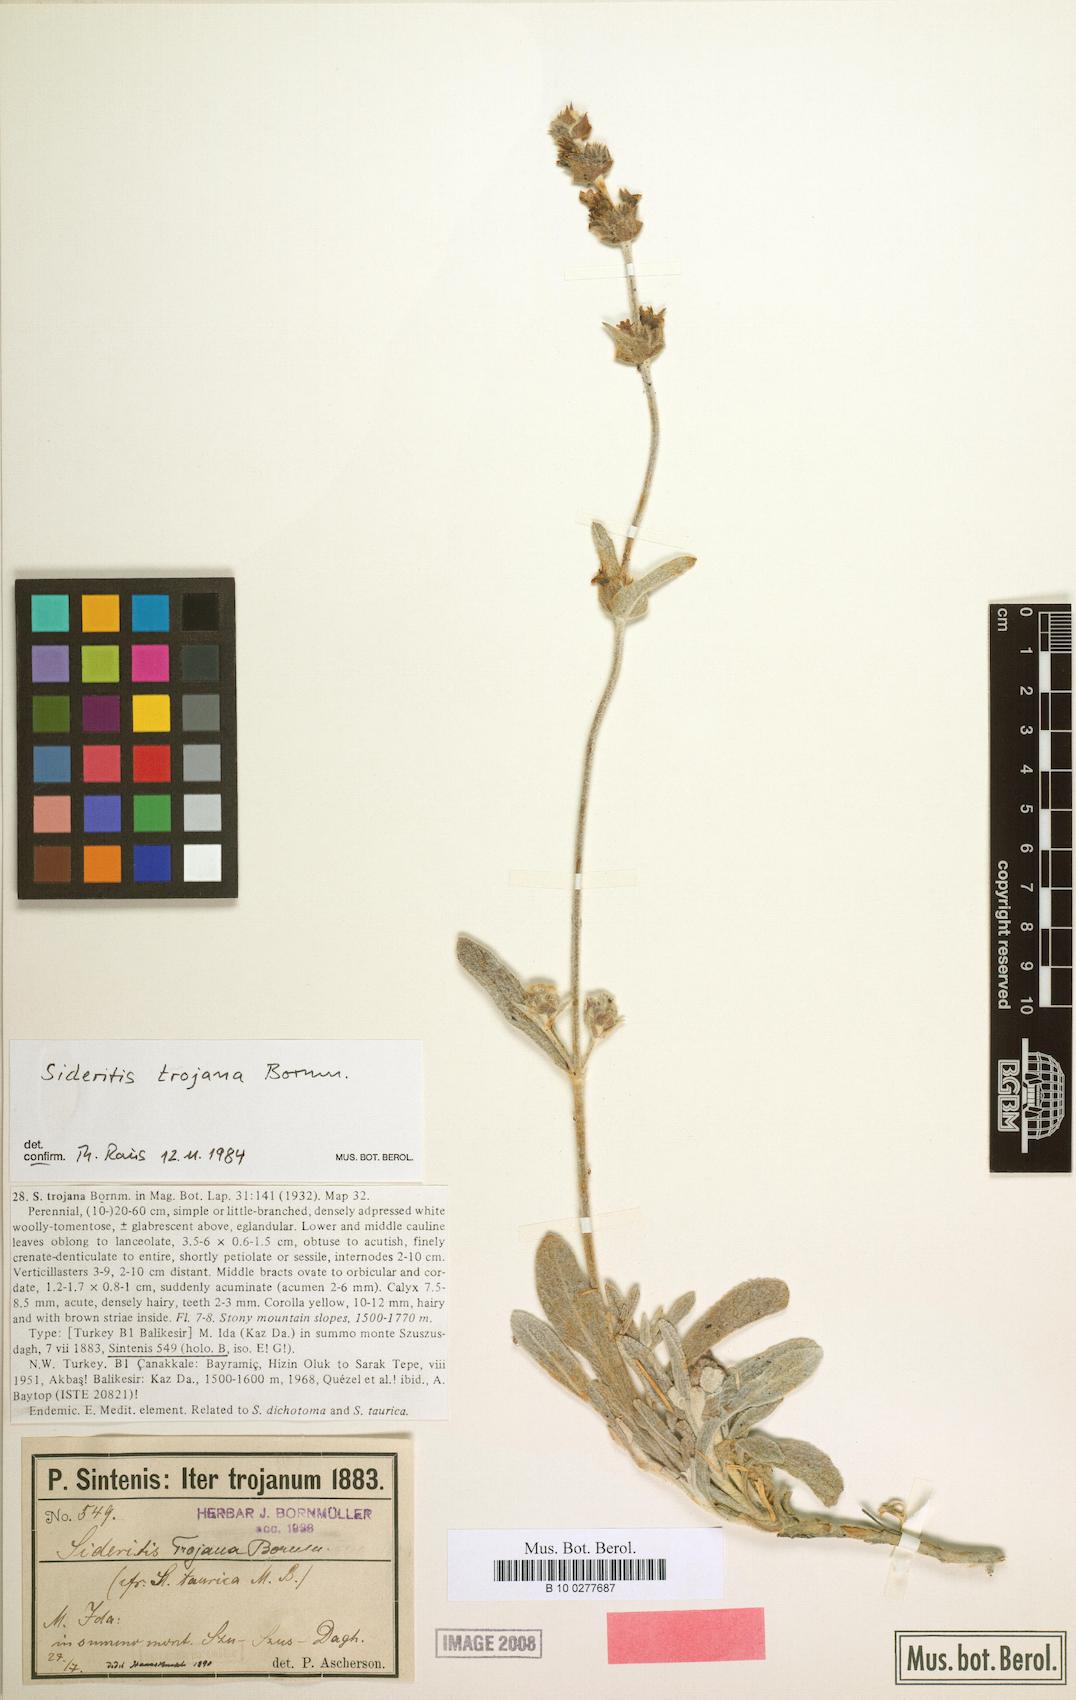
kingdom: Plantae
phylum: Tracheophyta
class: Magnoliopsida
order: Lamiales
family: Lamiaceae
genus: Sideritis
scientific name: Sideritis trojana
